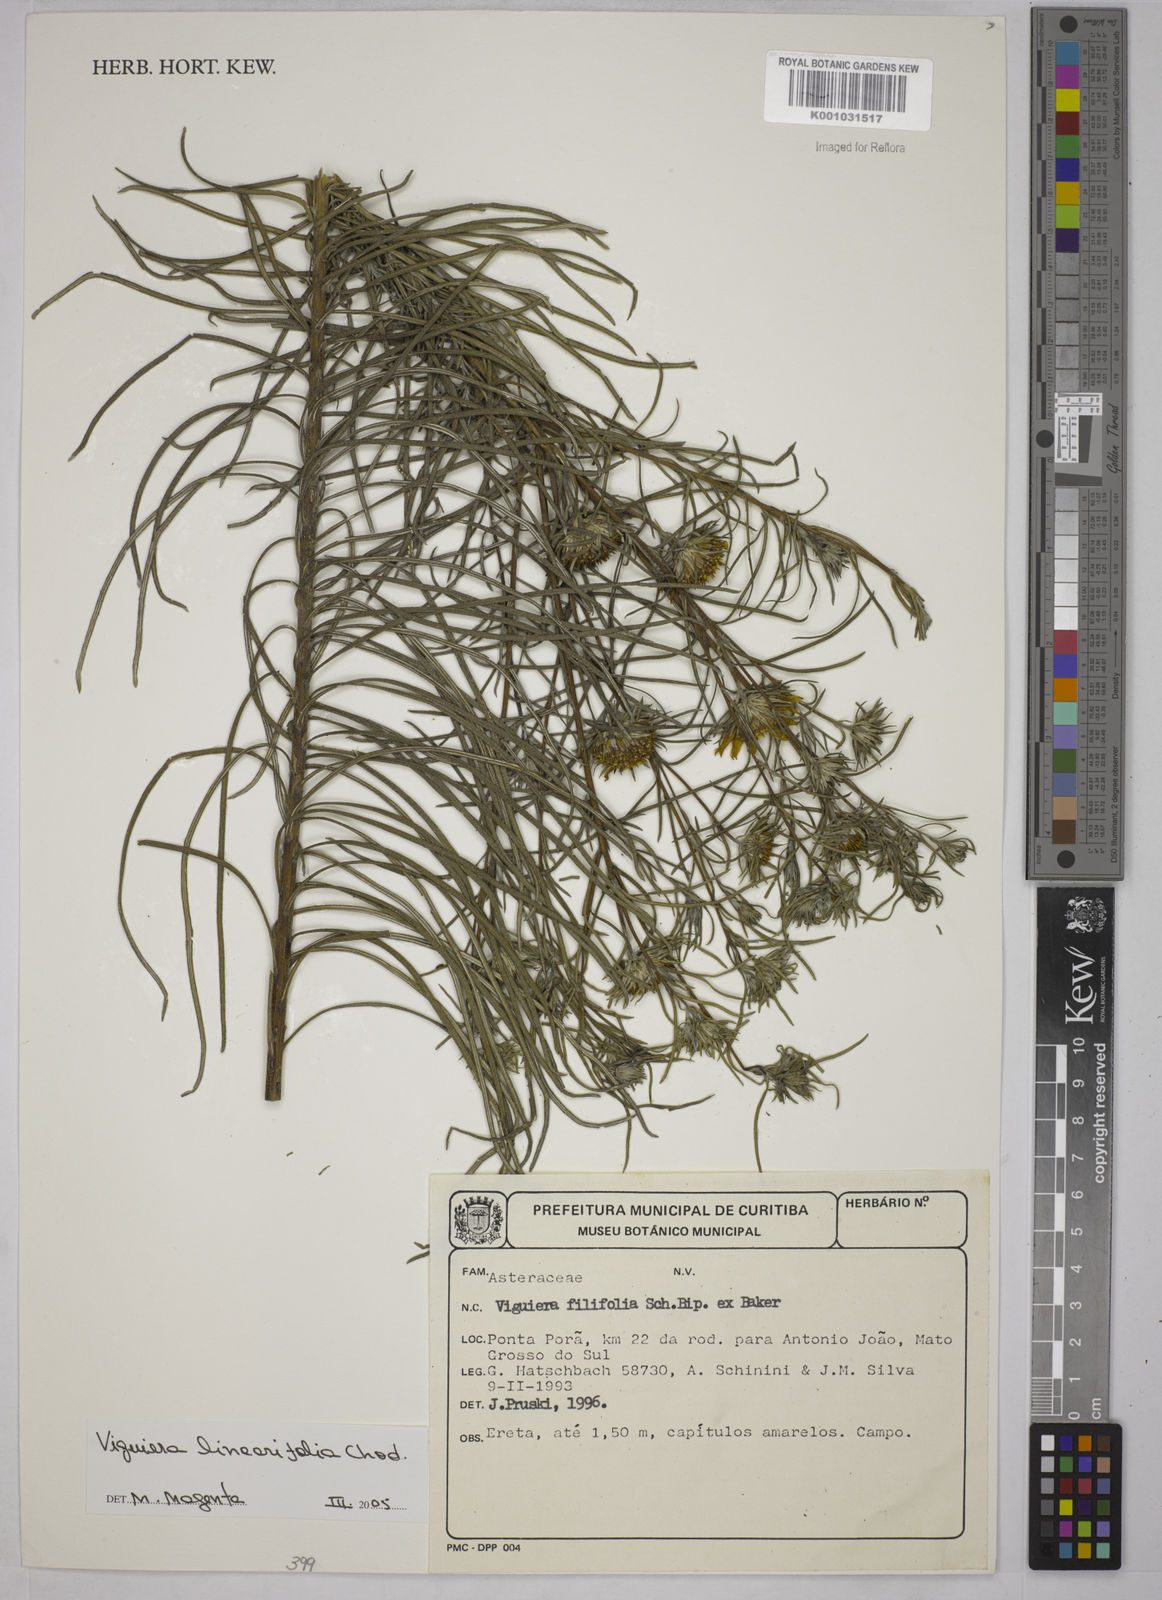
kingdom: Plantae
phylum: Tracheophyta
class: Magnoliopsida
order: Asterales
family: Asteraceae
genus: Aldama
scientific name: Aldama linearifolia
